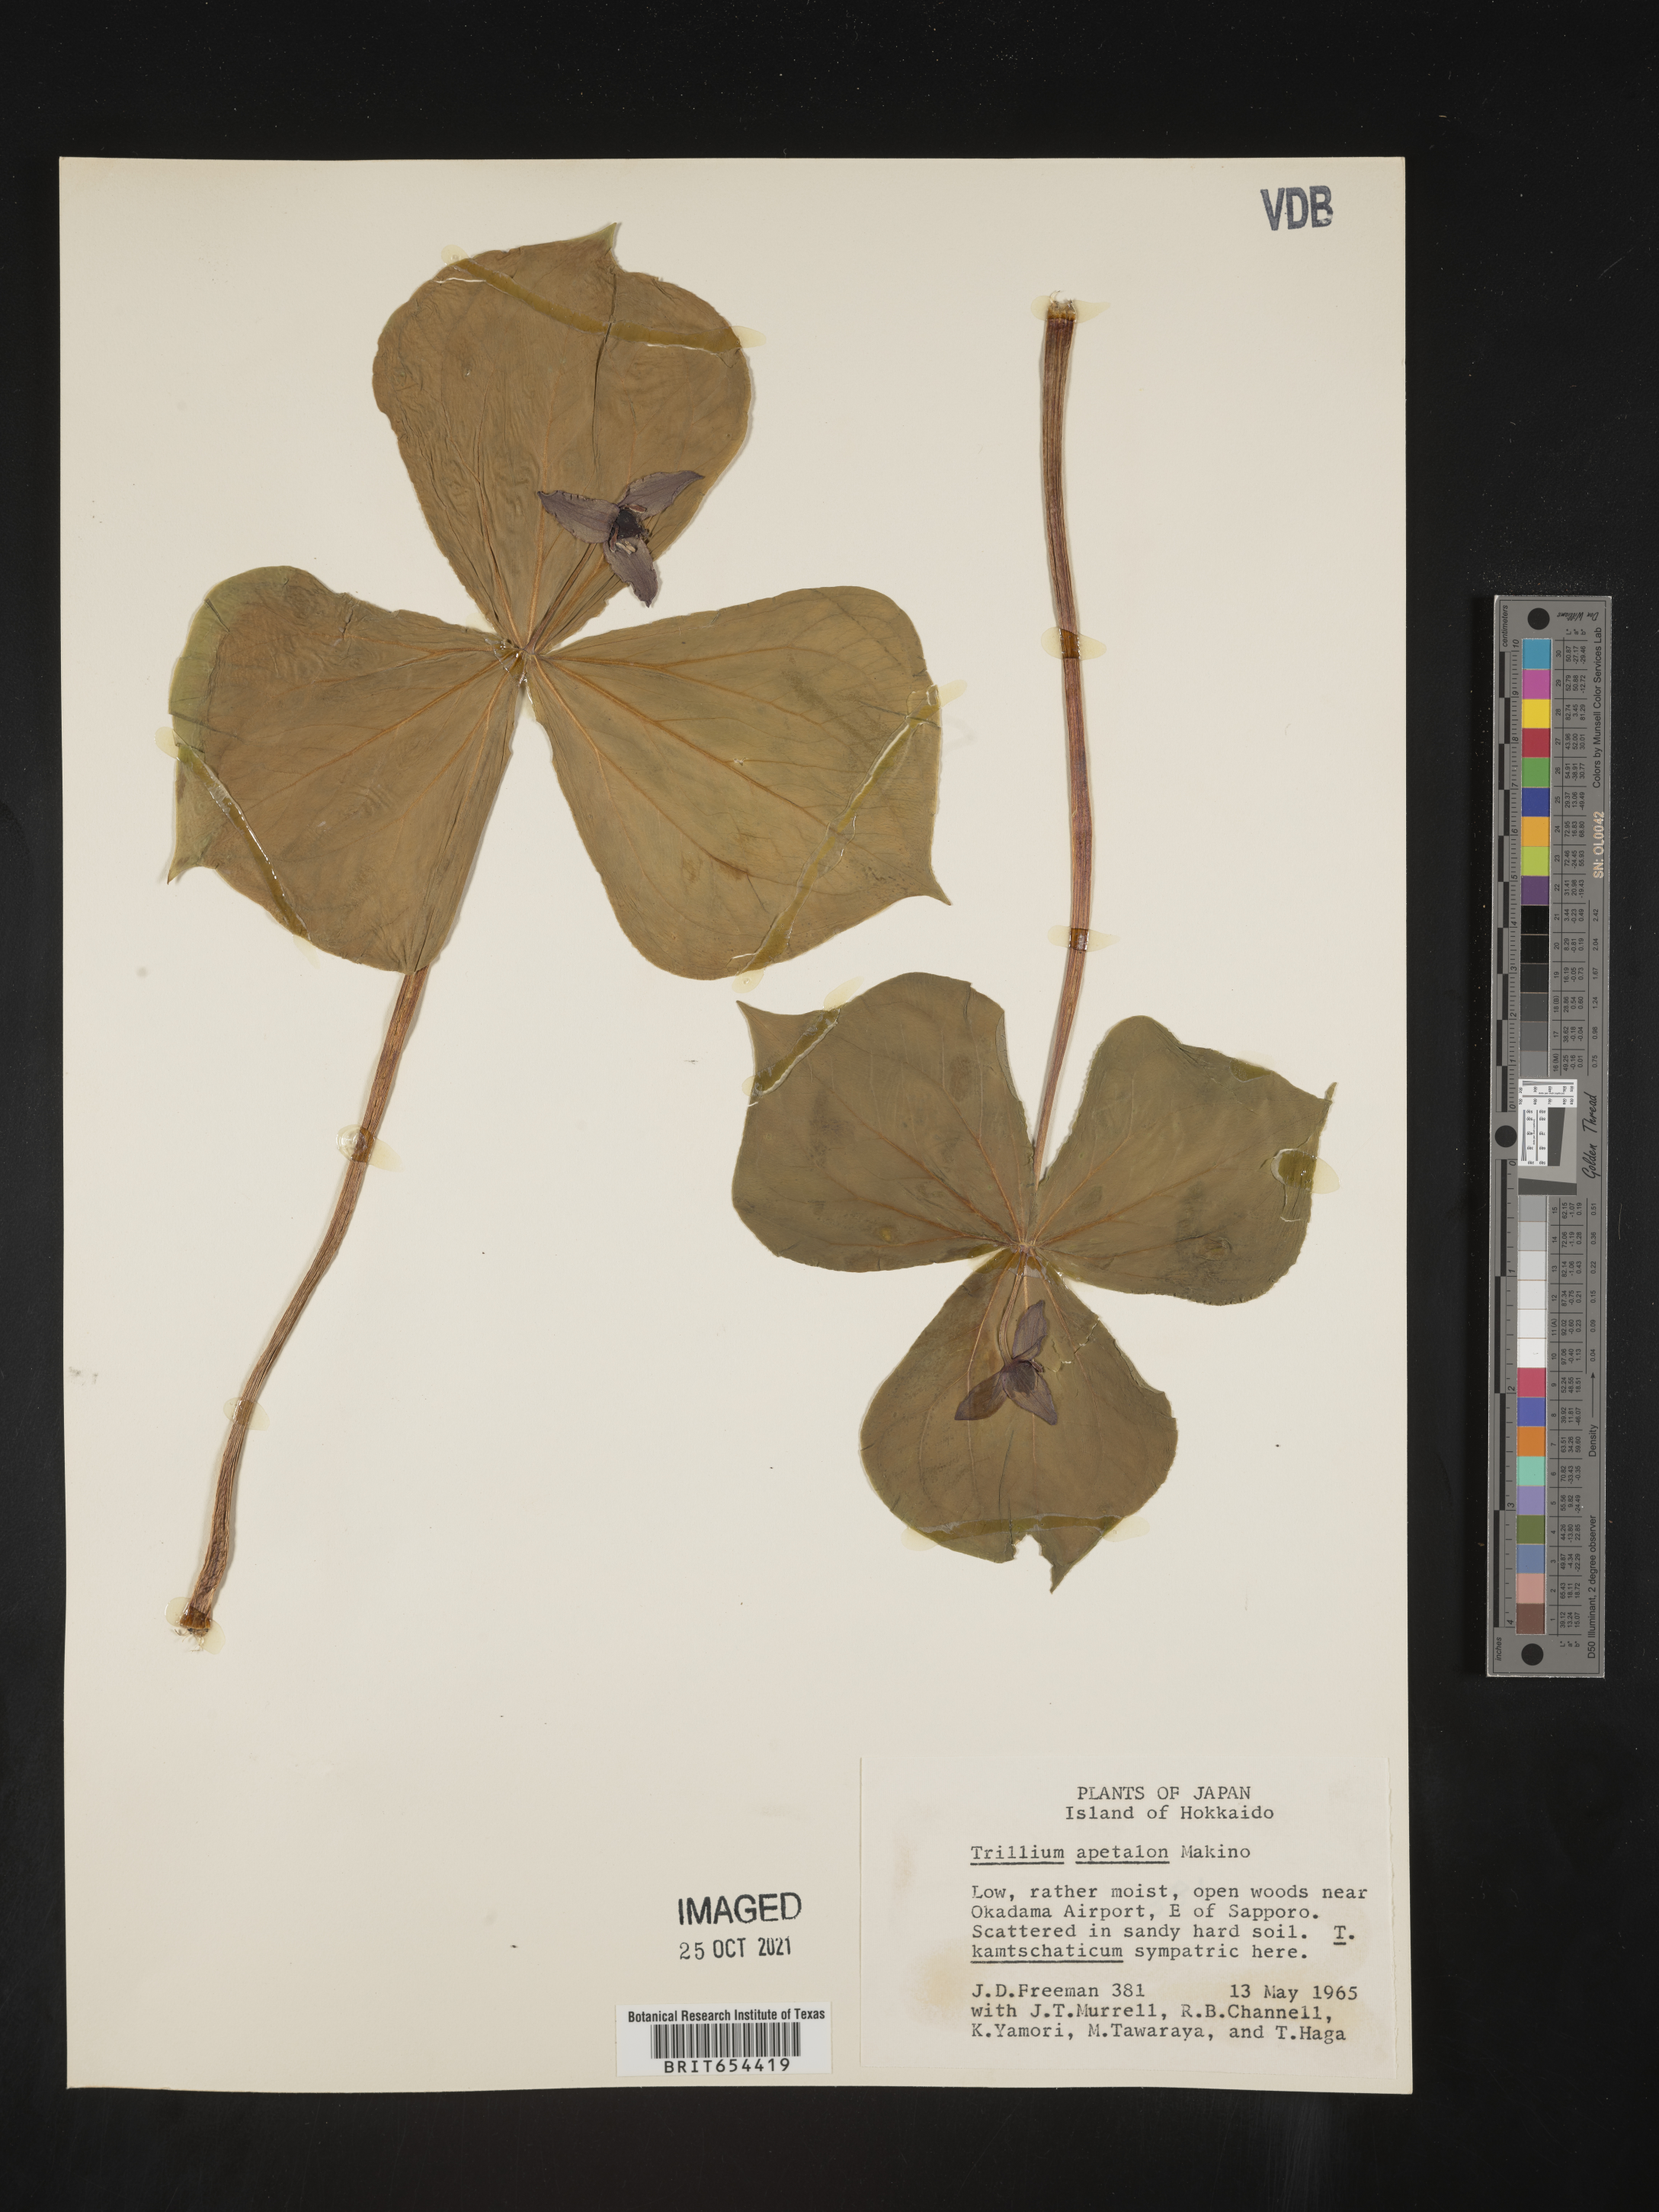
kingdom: Plantae
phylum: Tracheophyta
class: Liliopsida
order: Liliales
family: Melanthiaceae
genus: Trillium
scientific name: Trillium
